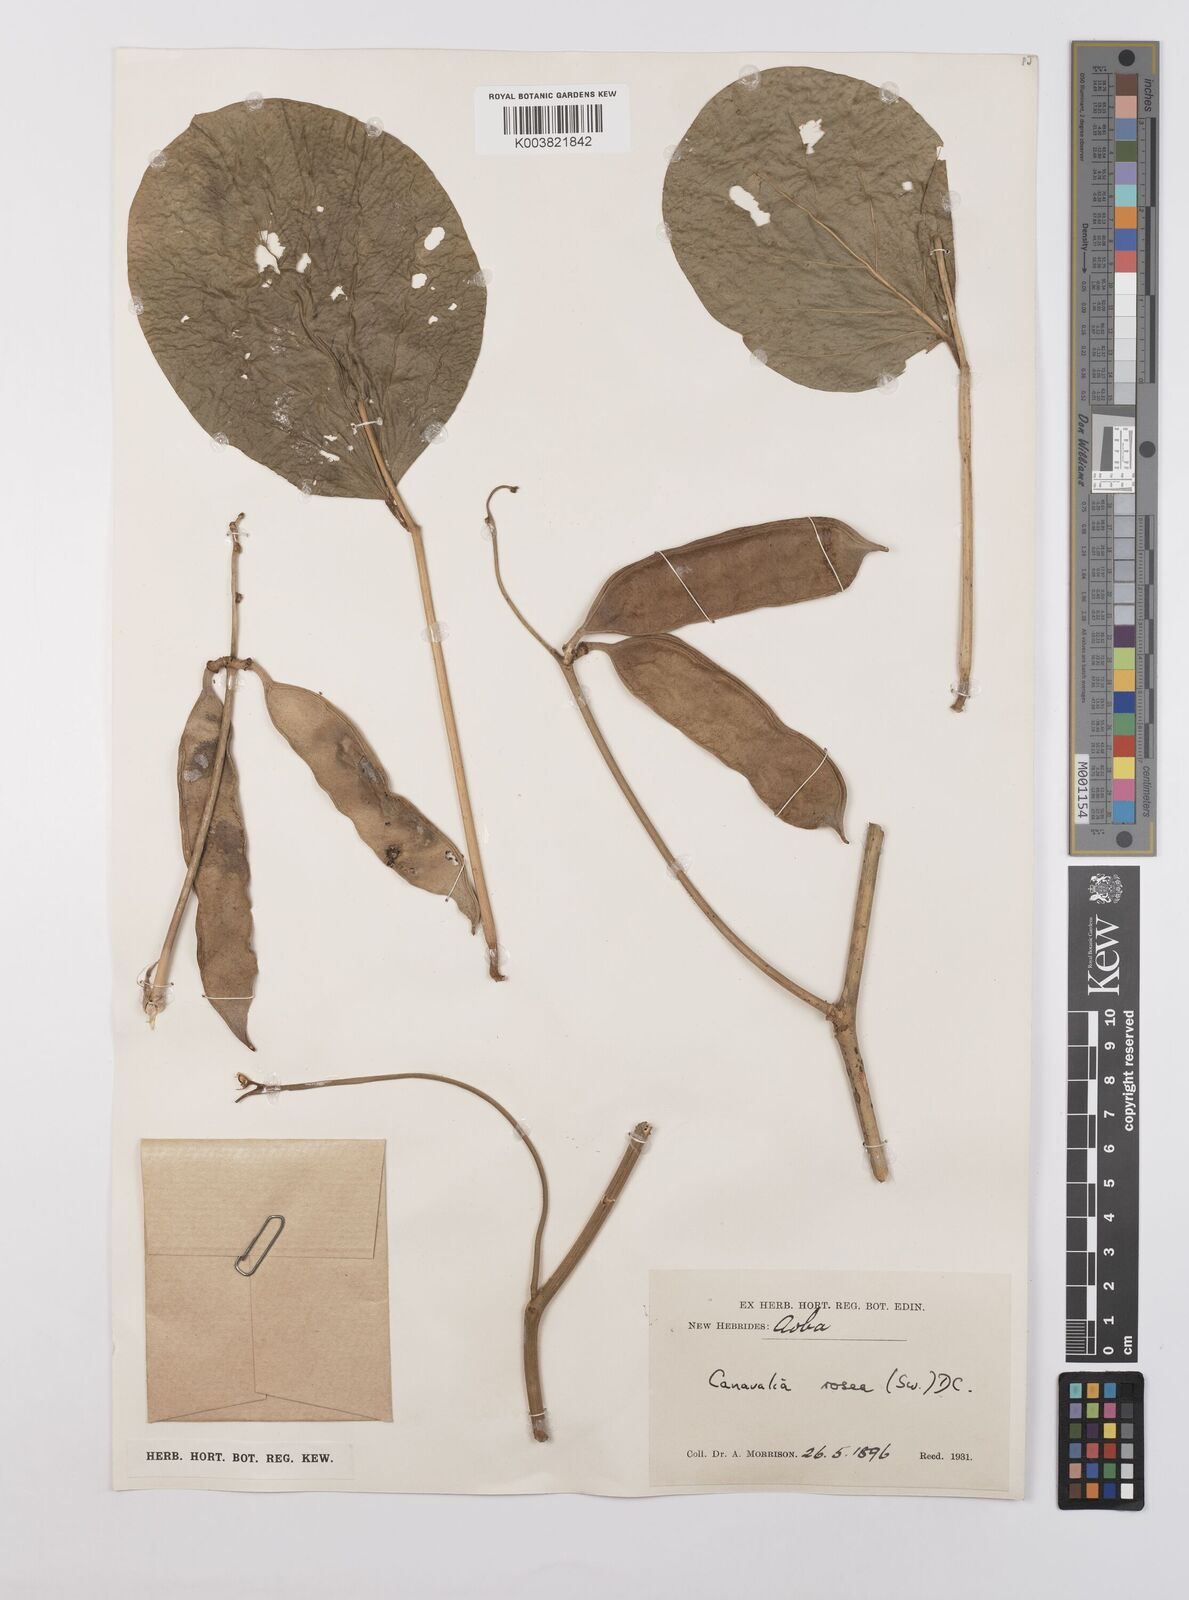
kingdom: Plantae
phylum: Tracheophyta
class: Magnoliopsida
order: Fabales
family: Fabaceae
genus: Canavalia
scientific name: Canavalia rosea
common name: Beach-bean
